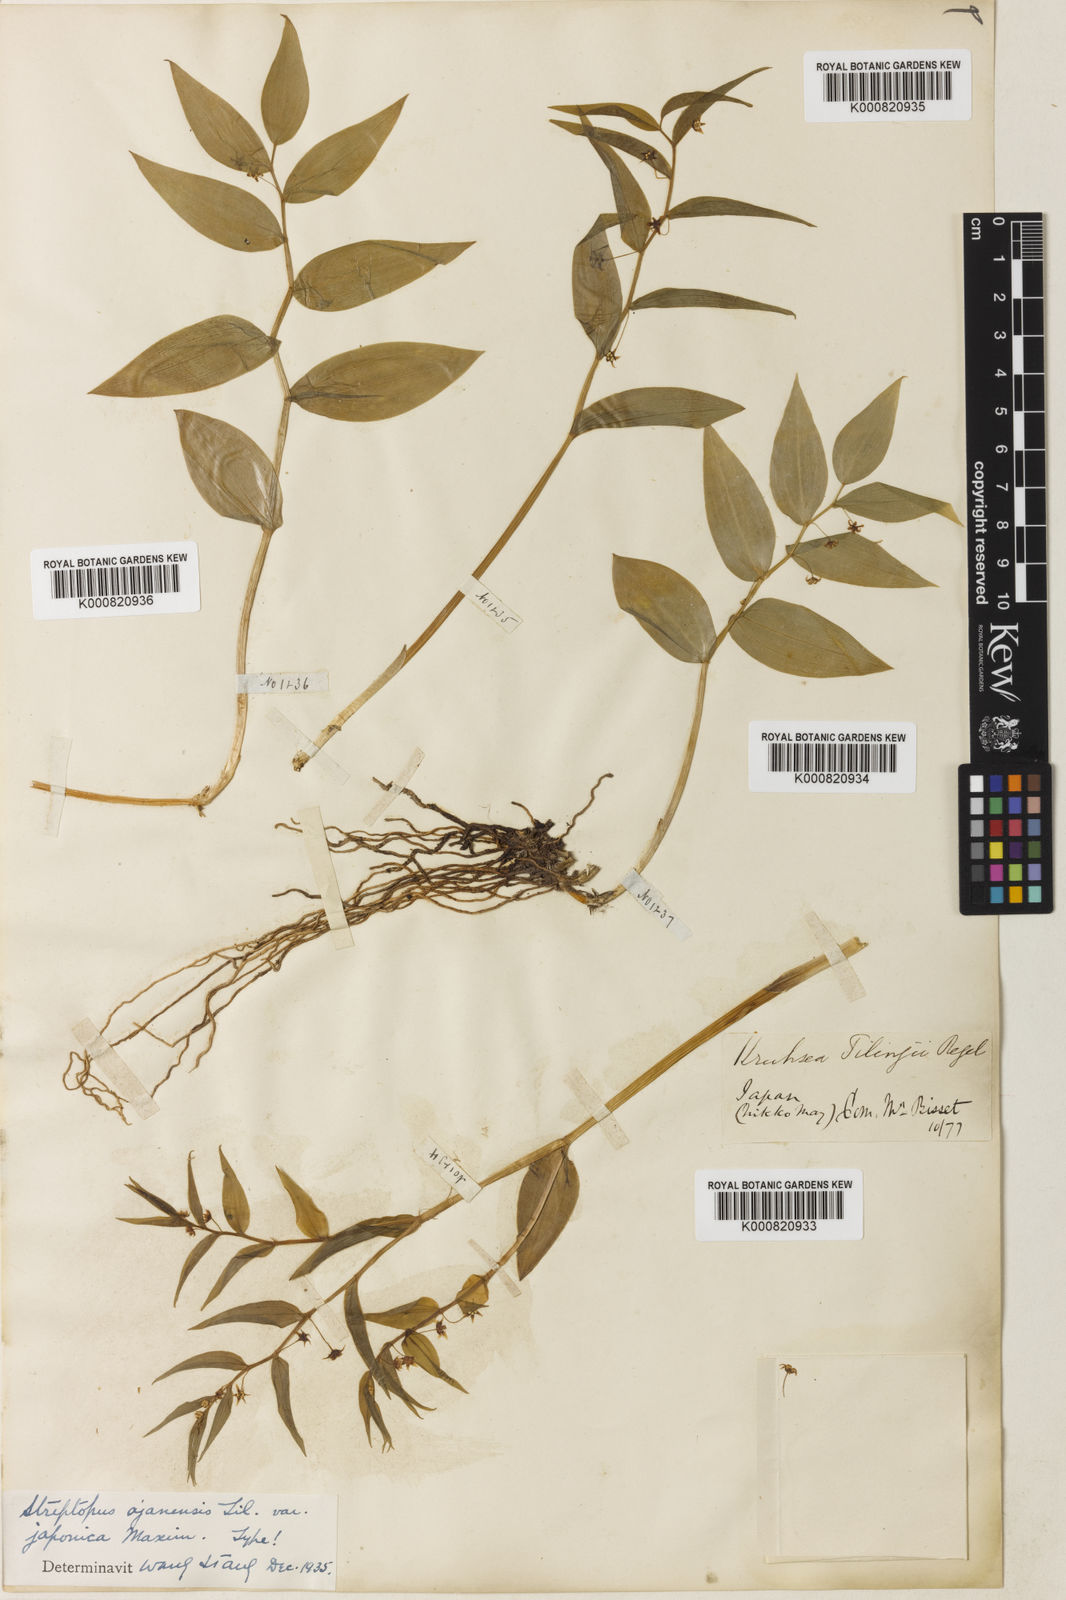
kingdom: Plantae
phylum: Tracheophyta
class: Liliopsida
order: Liliales
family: Liliaceae
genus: Streptopus
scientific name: Streptopus streptopoides
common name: Small twisted-stalk
